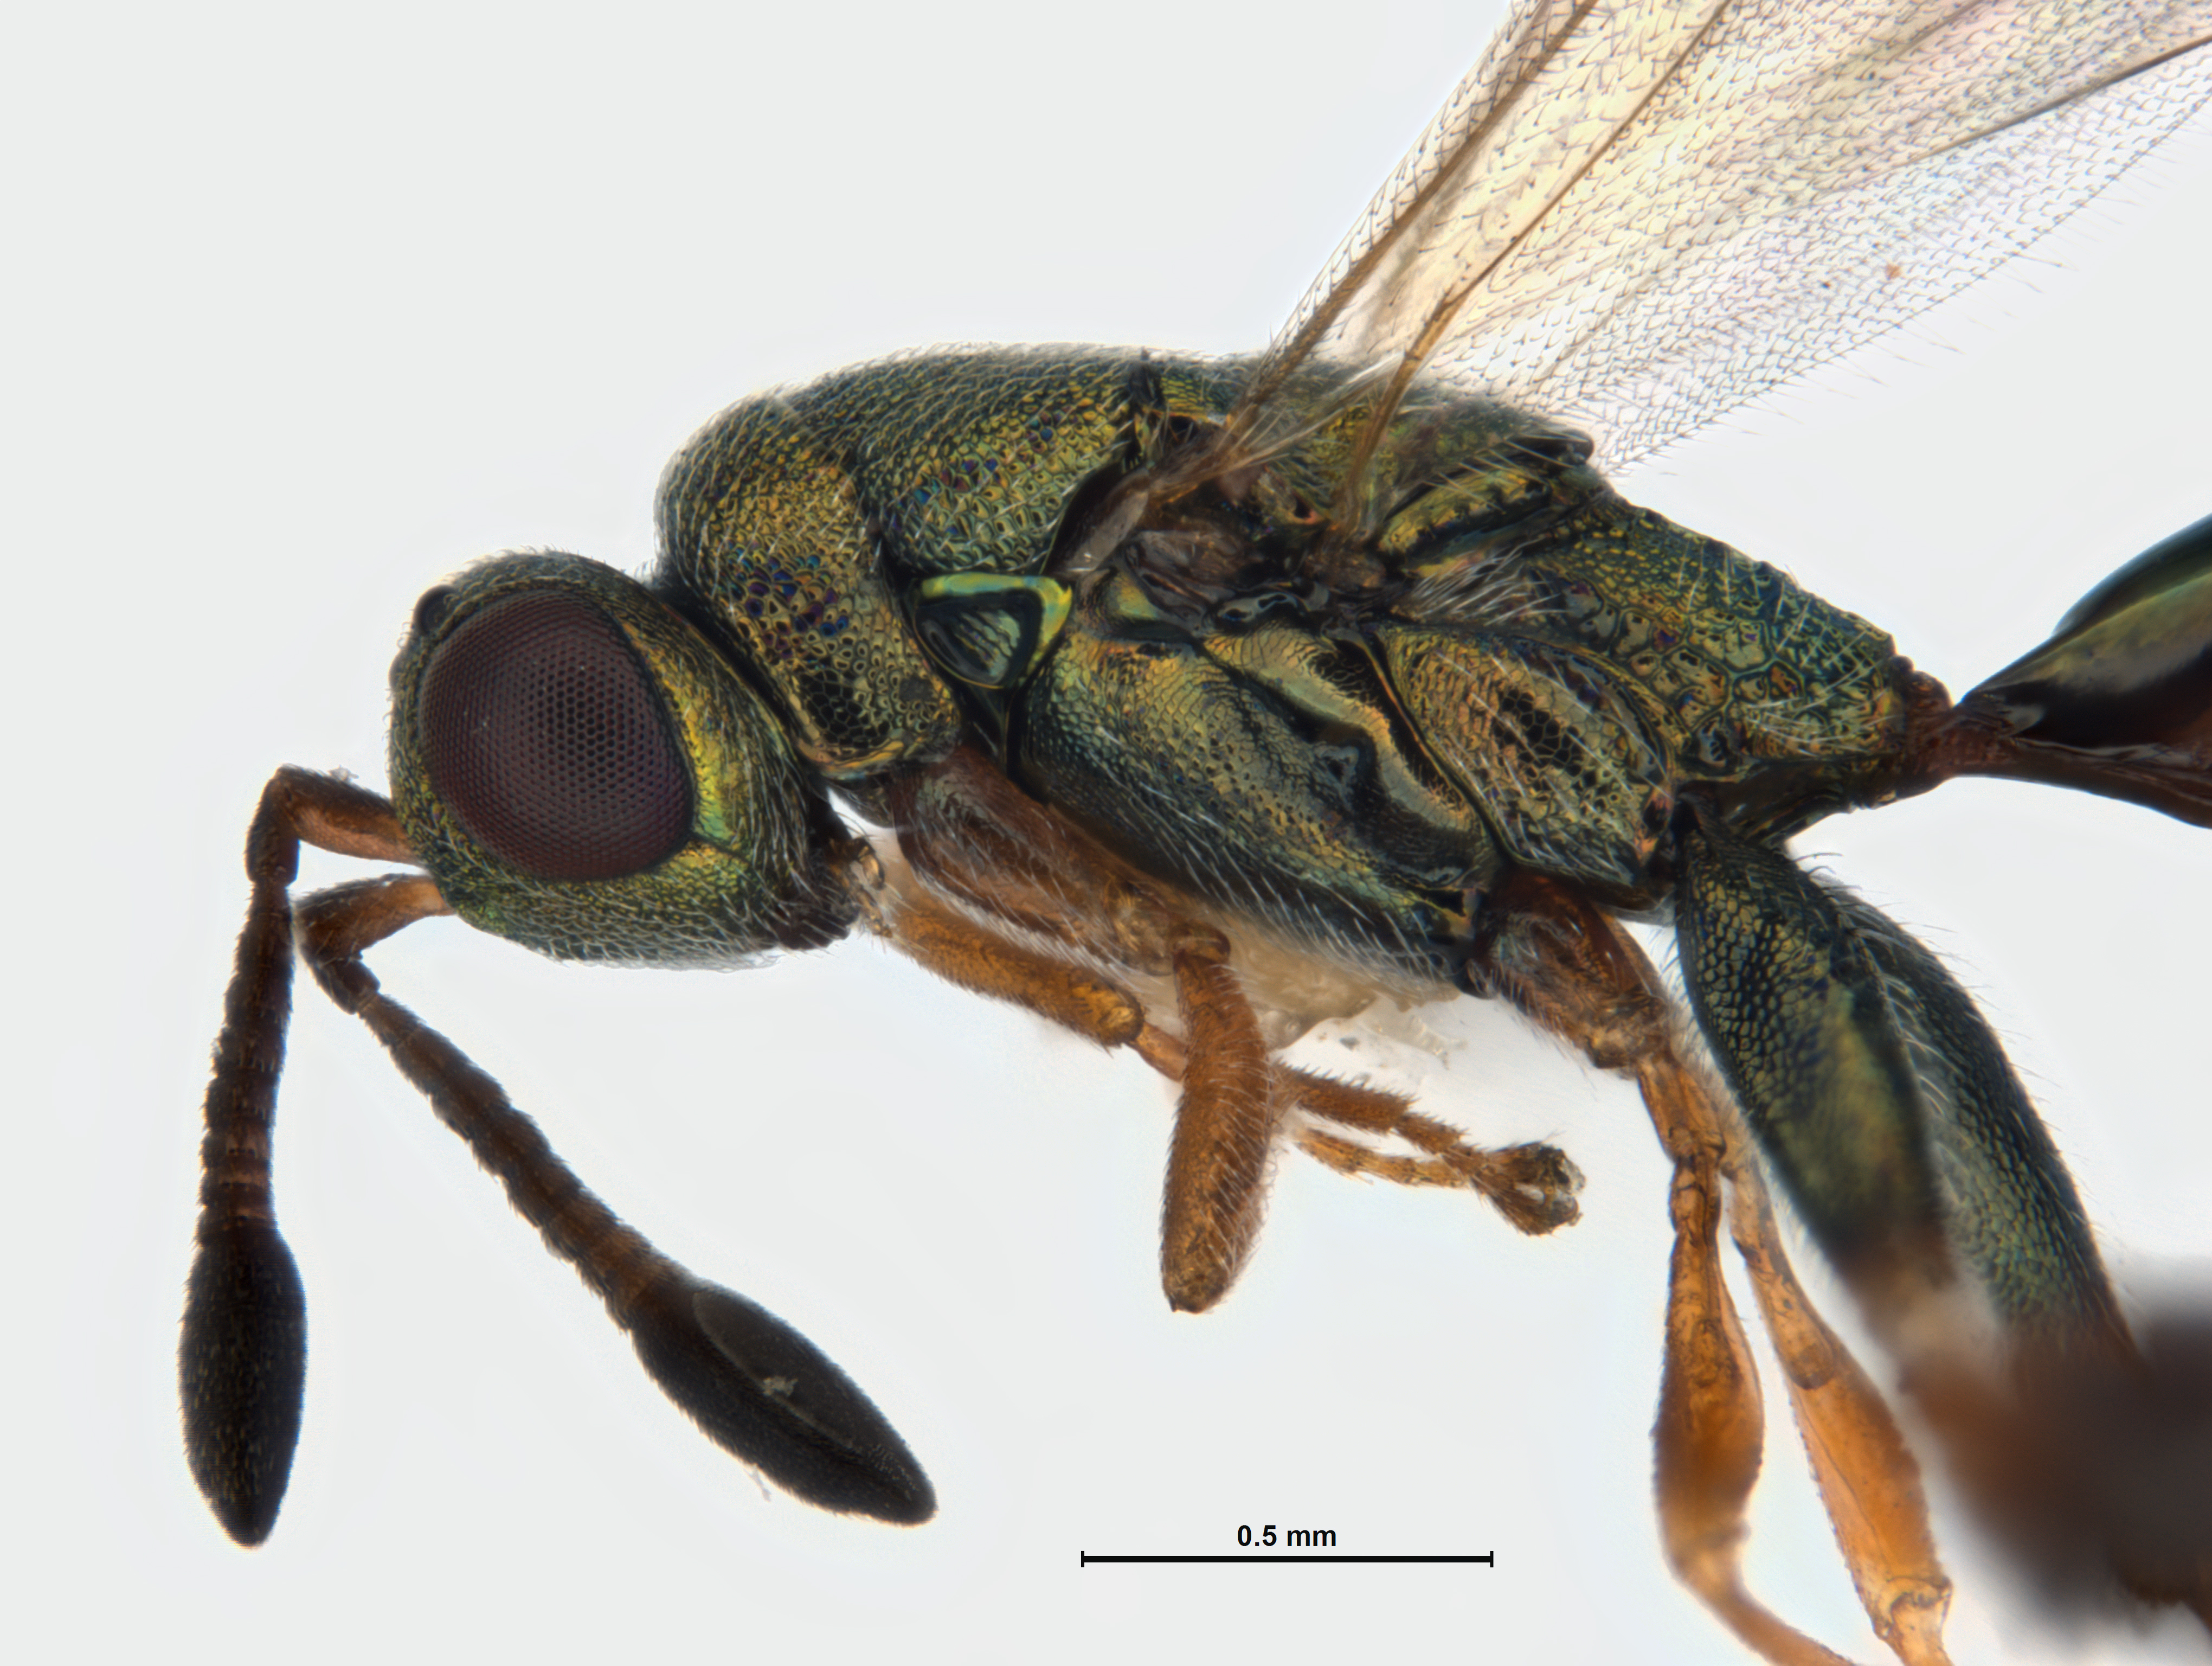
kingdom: Animalia
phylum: Arthropoda
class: Insecta
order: Hymenoptera
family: Torymidae
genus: Palmon
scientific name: Palmon
